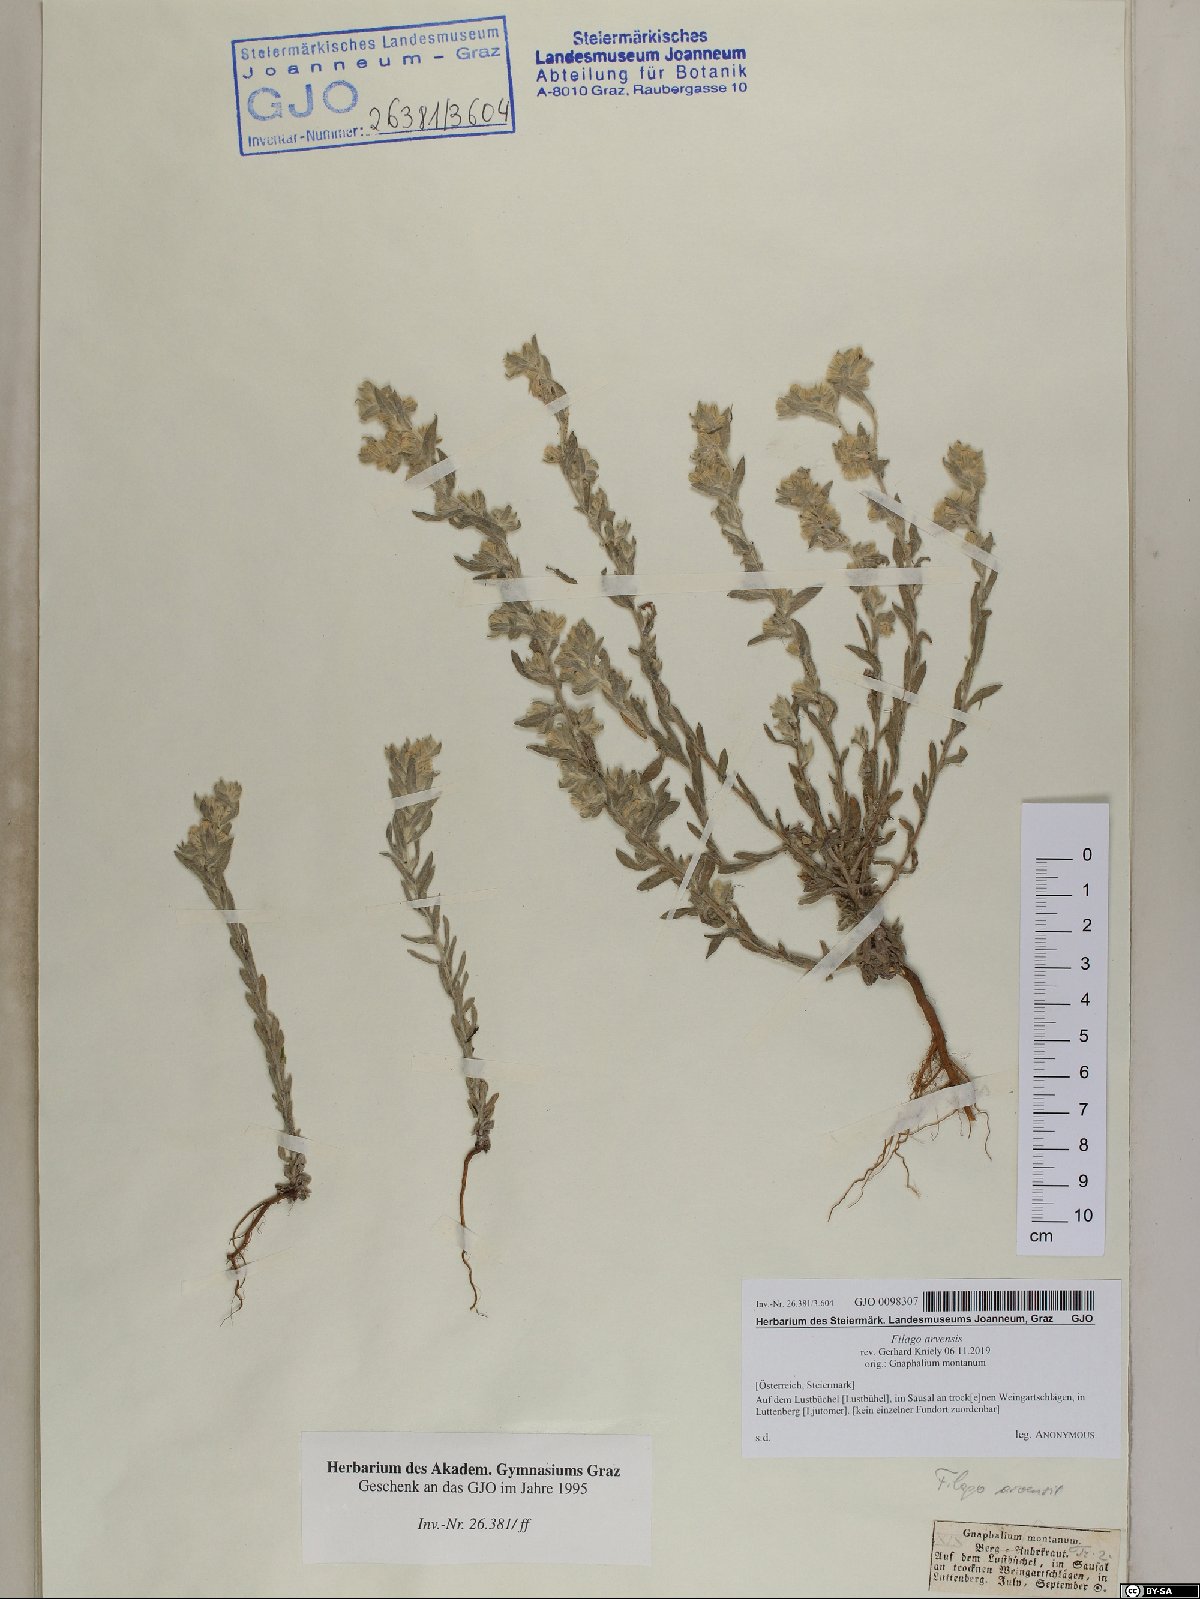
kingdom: Plantae
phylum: Tracheophyta
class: Magnoliopsida
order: Asterales
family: Asteraceae
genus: Filago
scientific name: Filago arvensis
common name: Field cudweed
